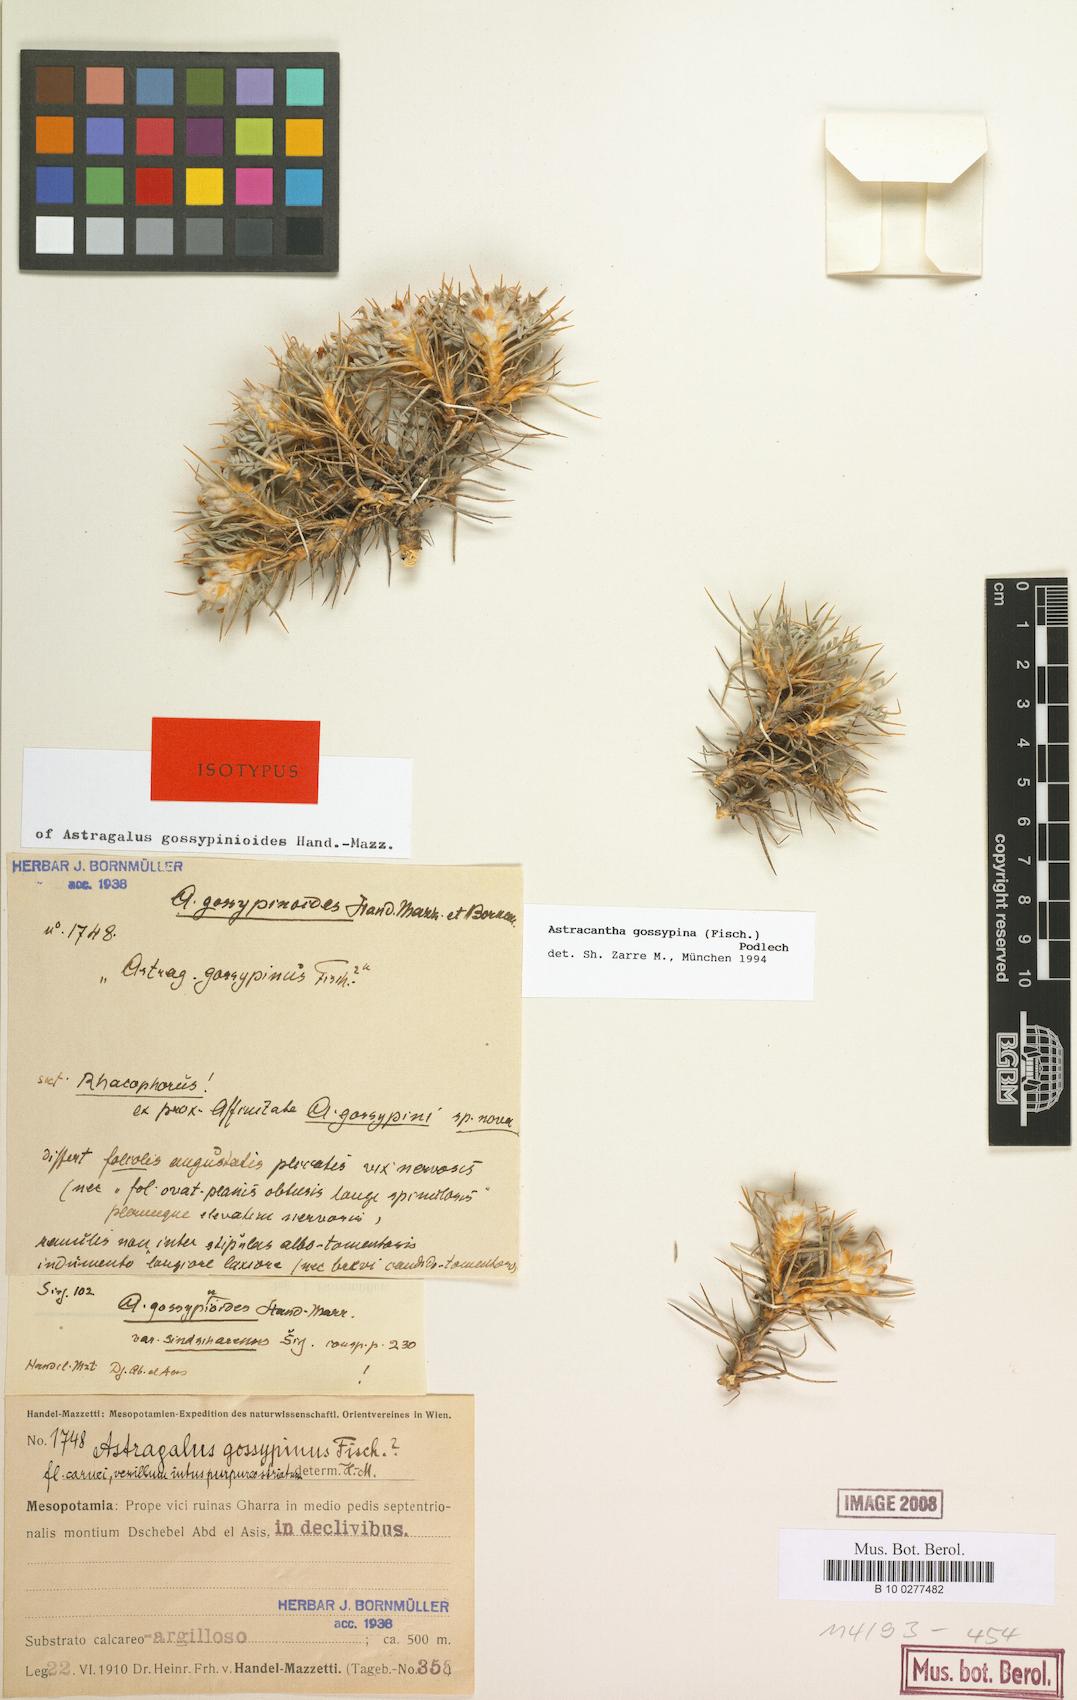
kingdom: Plantae
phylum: Tracheophyta
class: Magnoliopsida
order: Fabales
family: Fabaceae
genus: Astragalus
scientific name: Astragalus gossypinus
